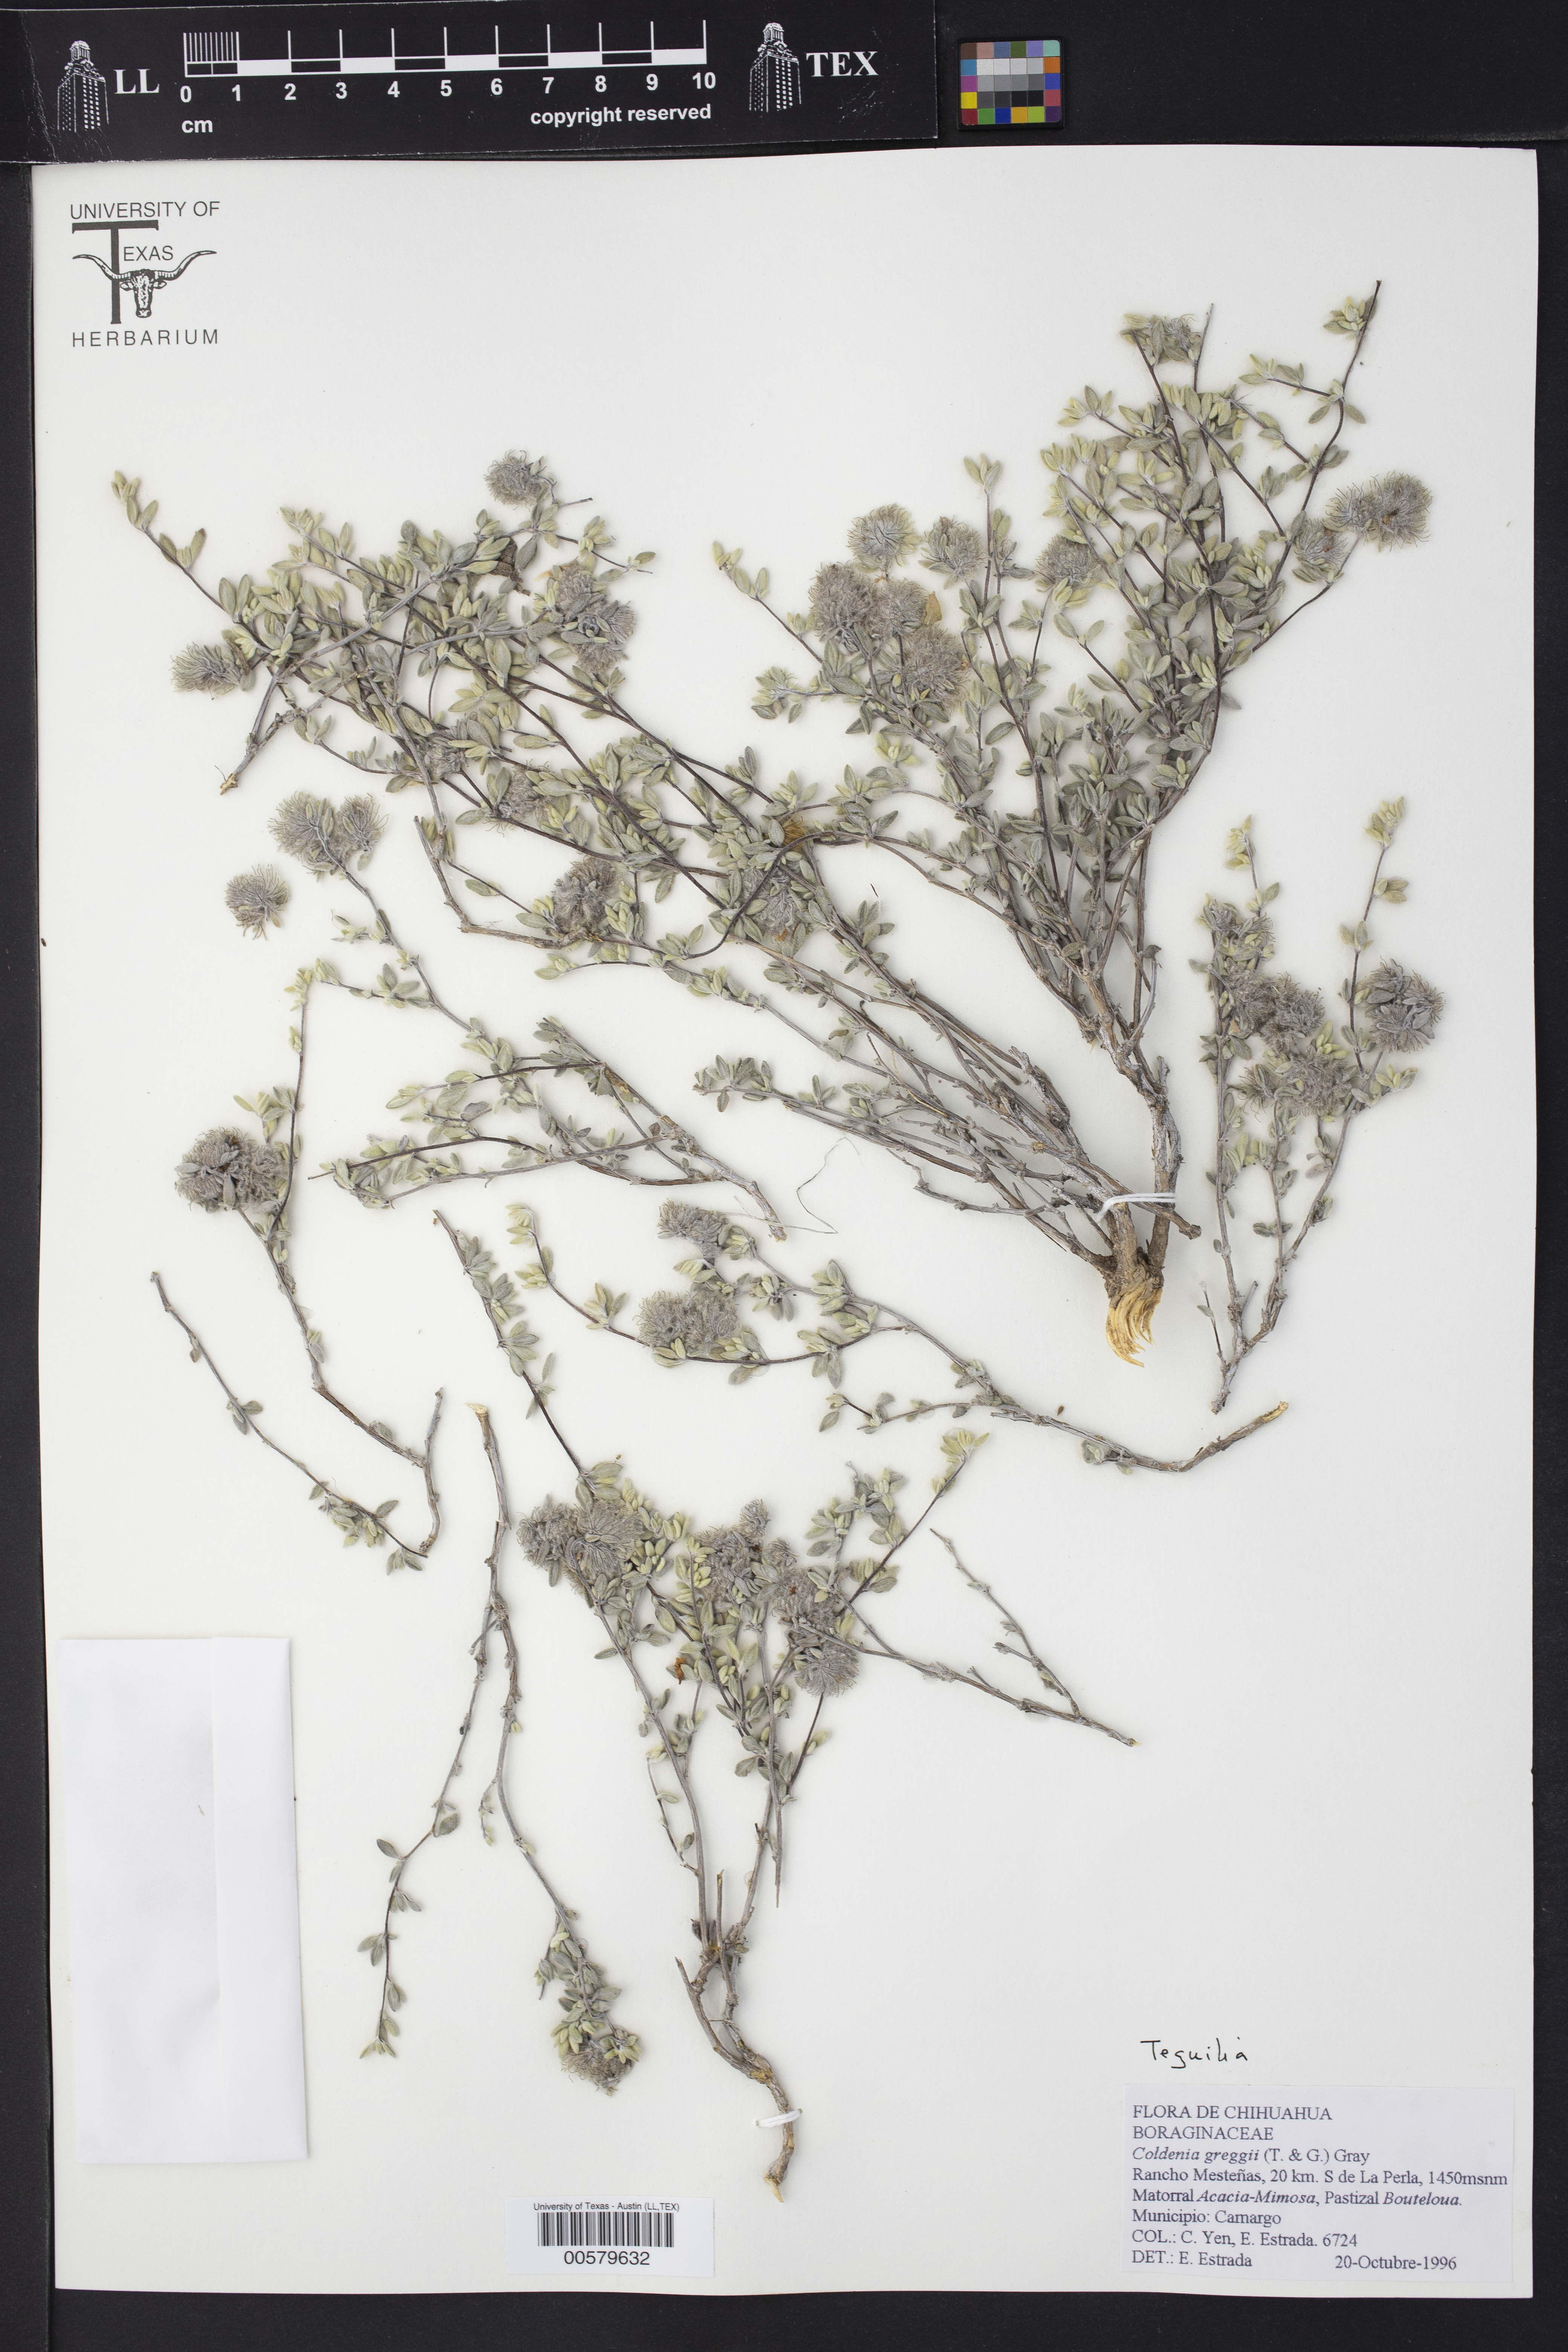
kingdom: Plantae
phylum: Tracheophyta
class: Magnoliopsida
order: Boraginales
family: Ehretiaceae
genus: Tiquilia
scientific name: Tiquilia greggii
